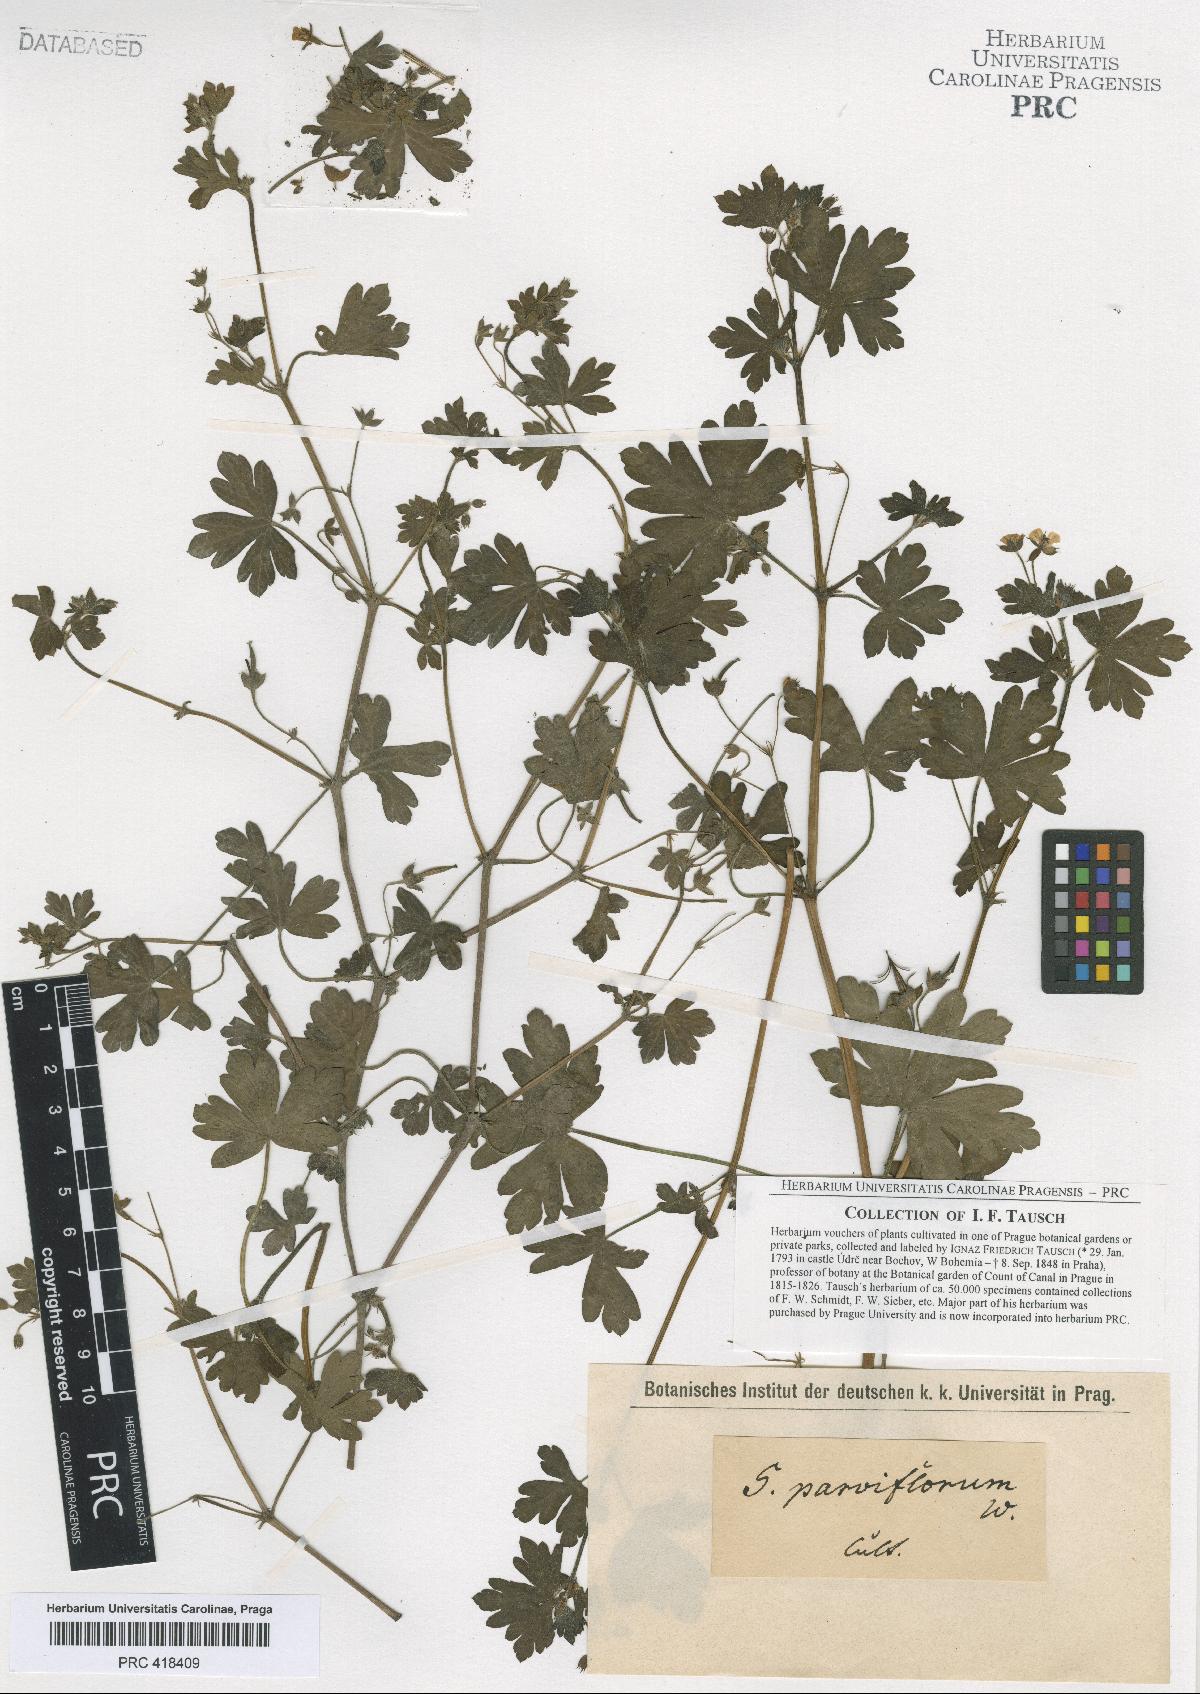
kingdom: Plantae
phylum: Tracheophyta
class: Magnoliopsida
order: Geraniales
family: Geraniaceae
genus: Geranium
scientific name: Geranium nepalense
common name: Nepalese crane's-bill
